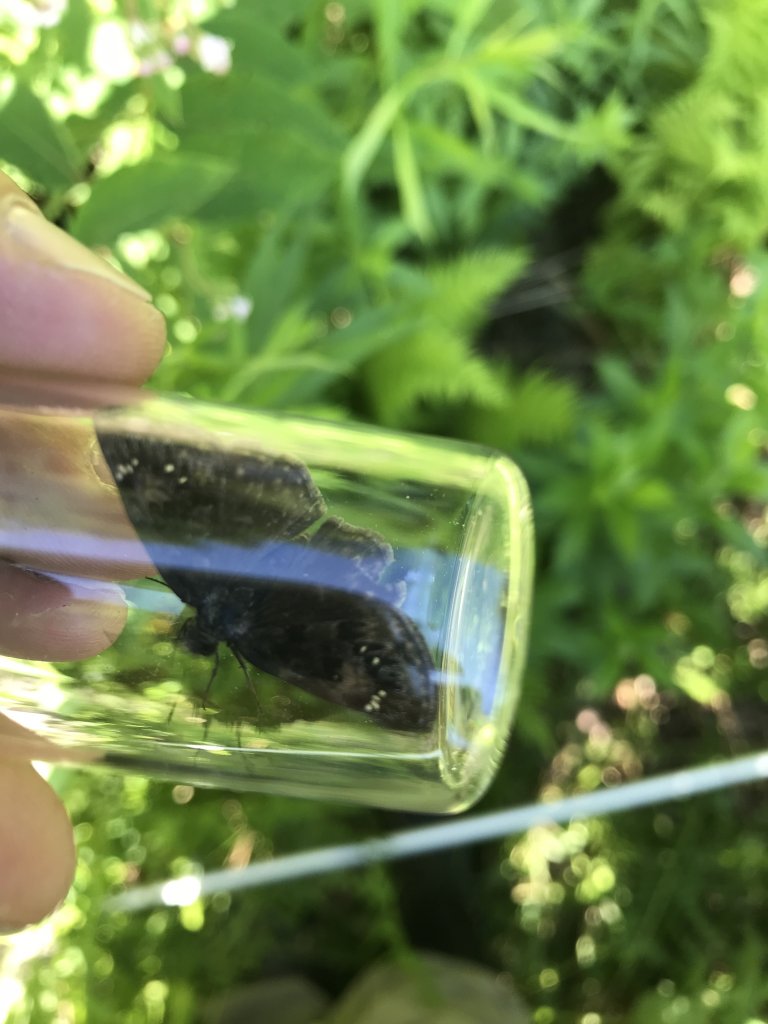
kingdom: Animalia
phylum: Arthropoda
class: Insecta
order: Lepidoptera
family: Hesperiidae
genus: Gesta
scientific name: Gesta
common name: Wild Indigo Duskywing
